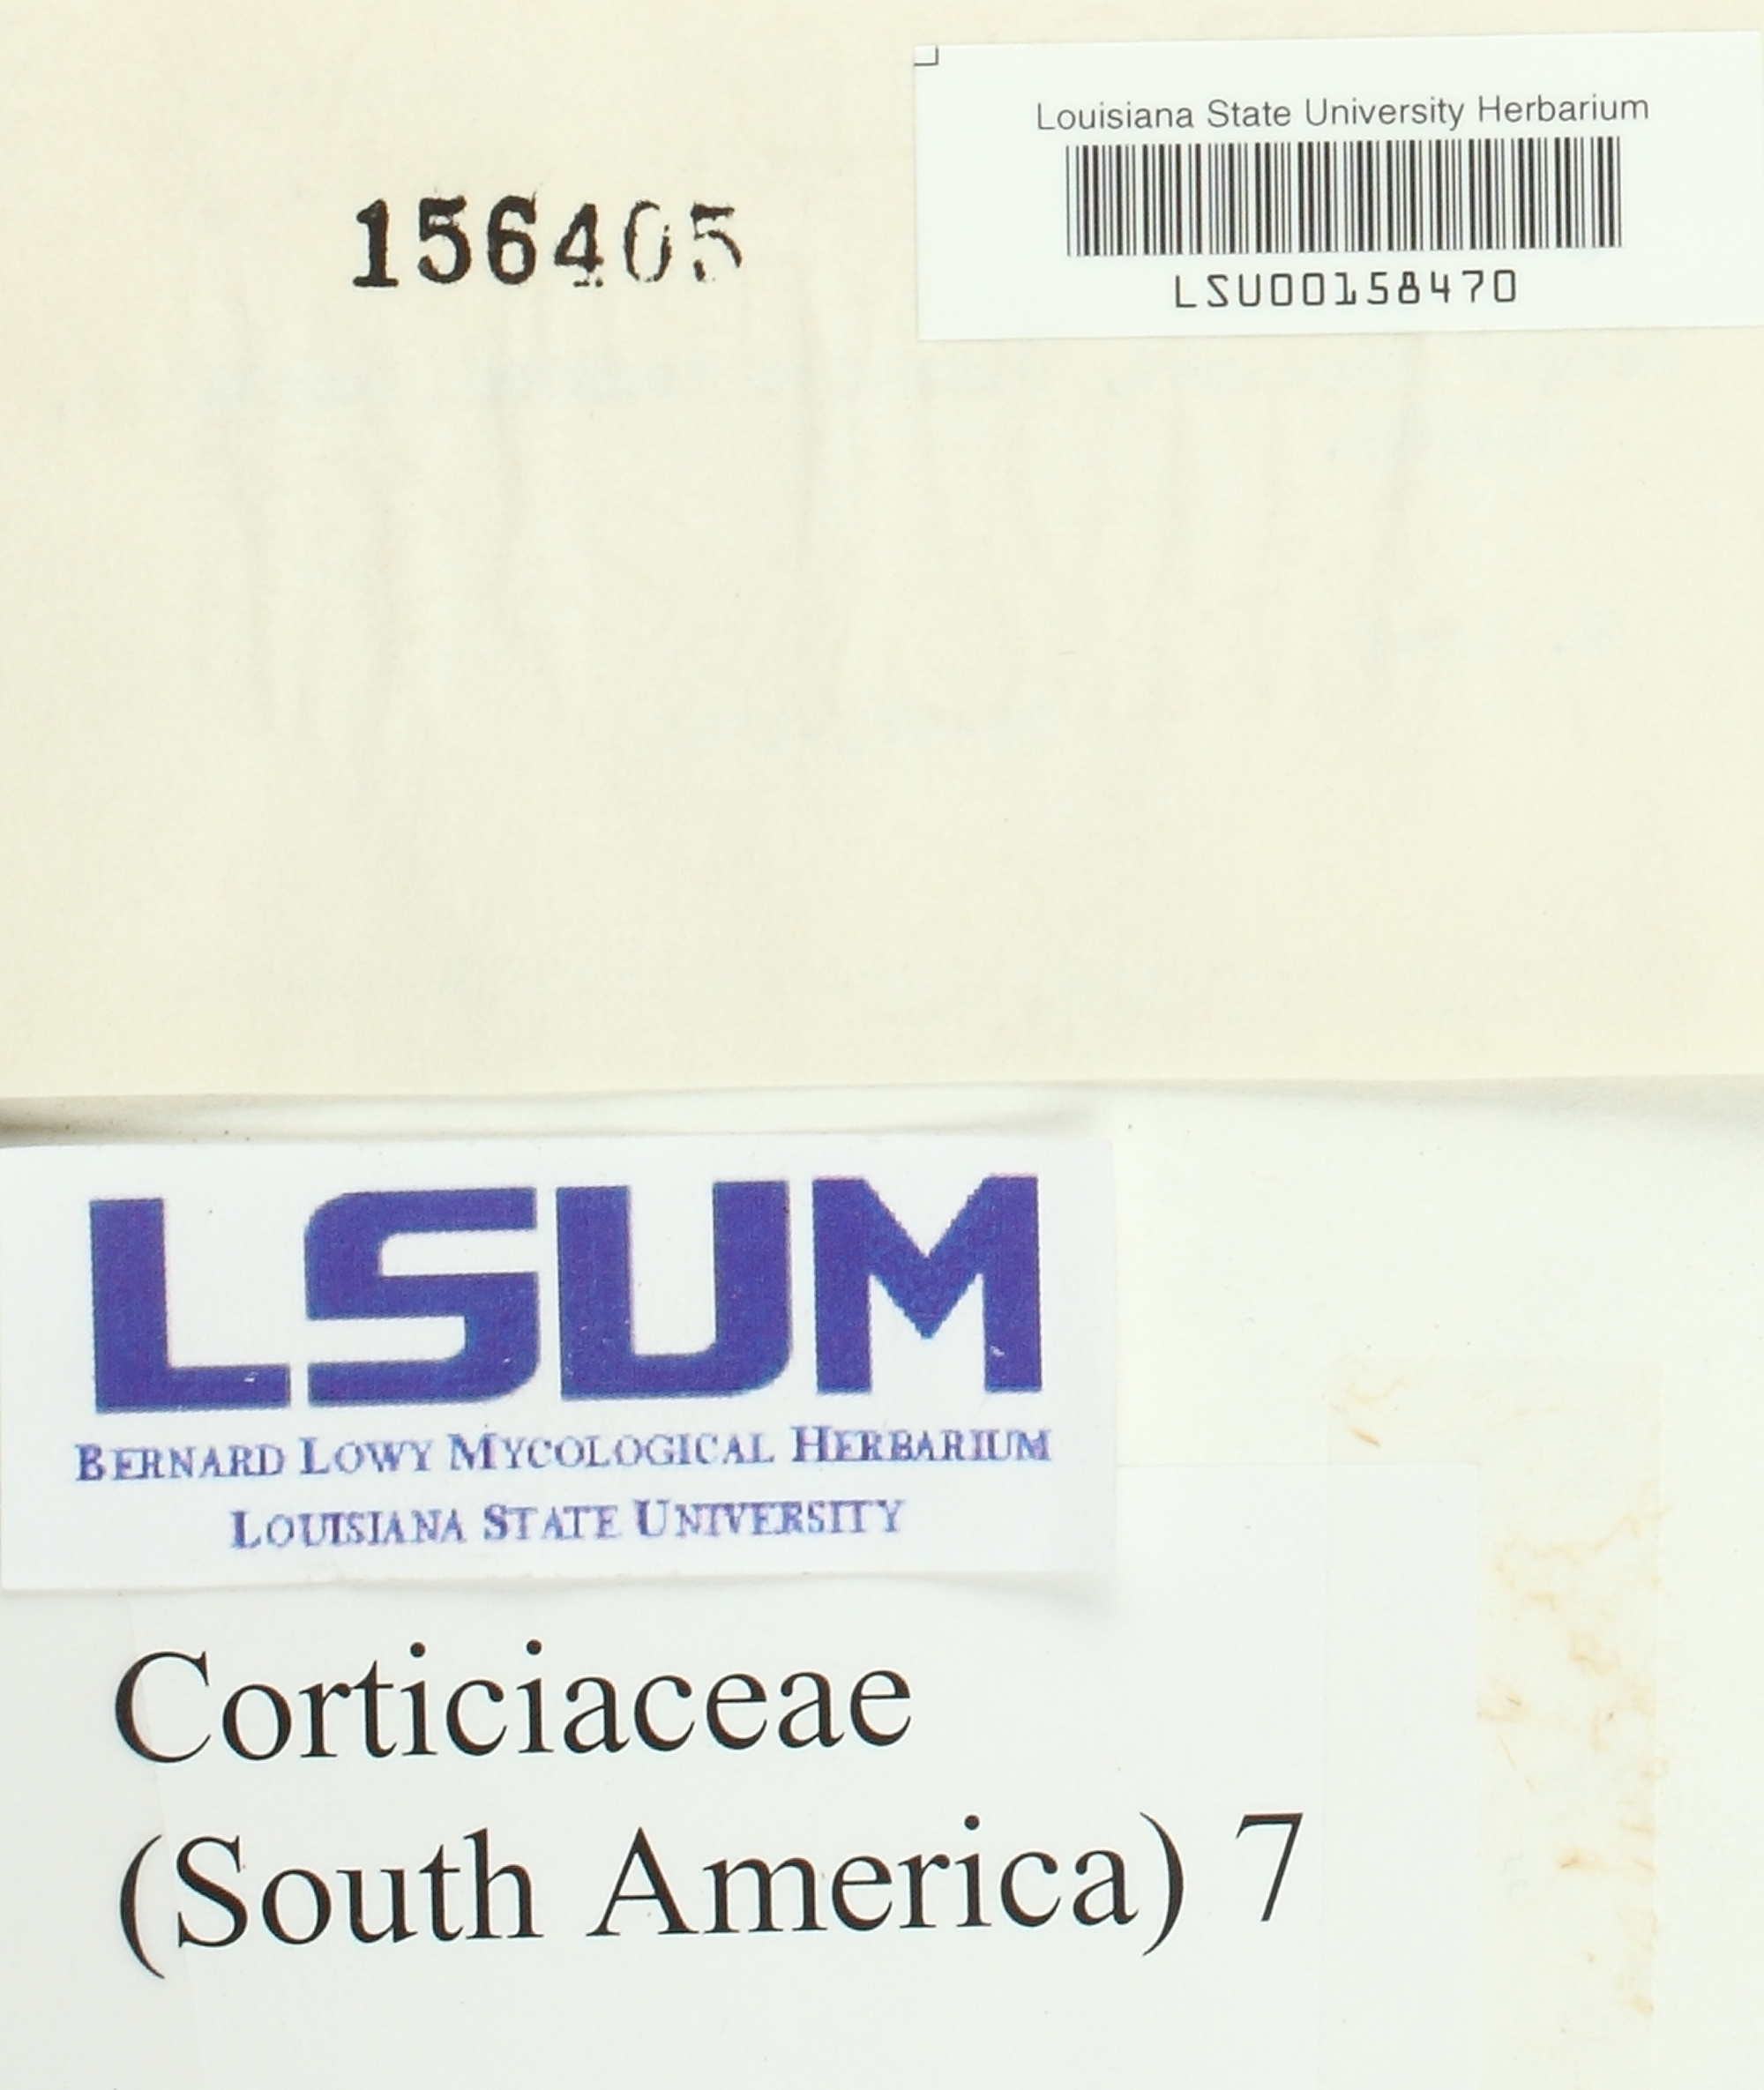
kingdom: Fungi
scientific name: Fungi
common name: Fungi
